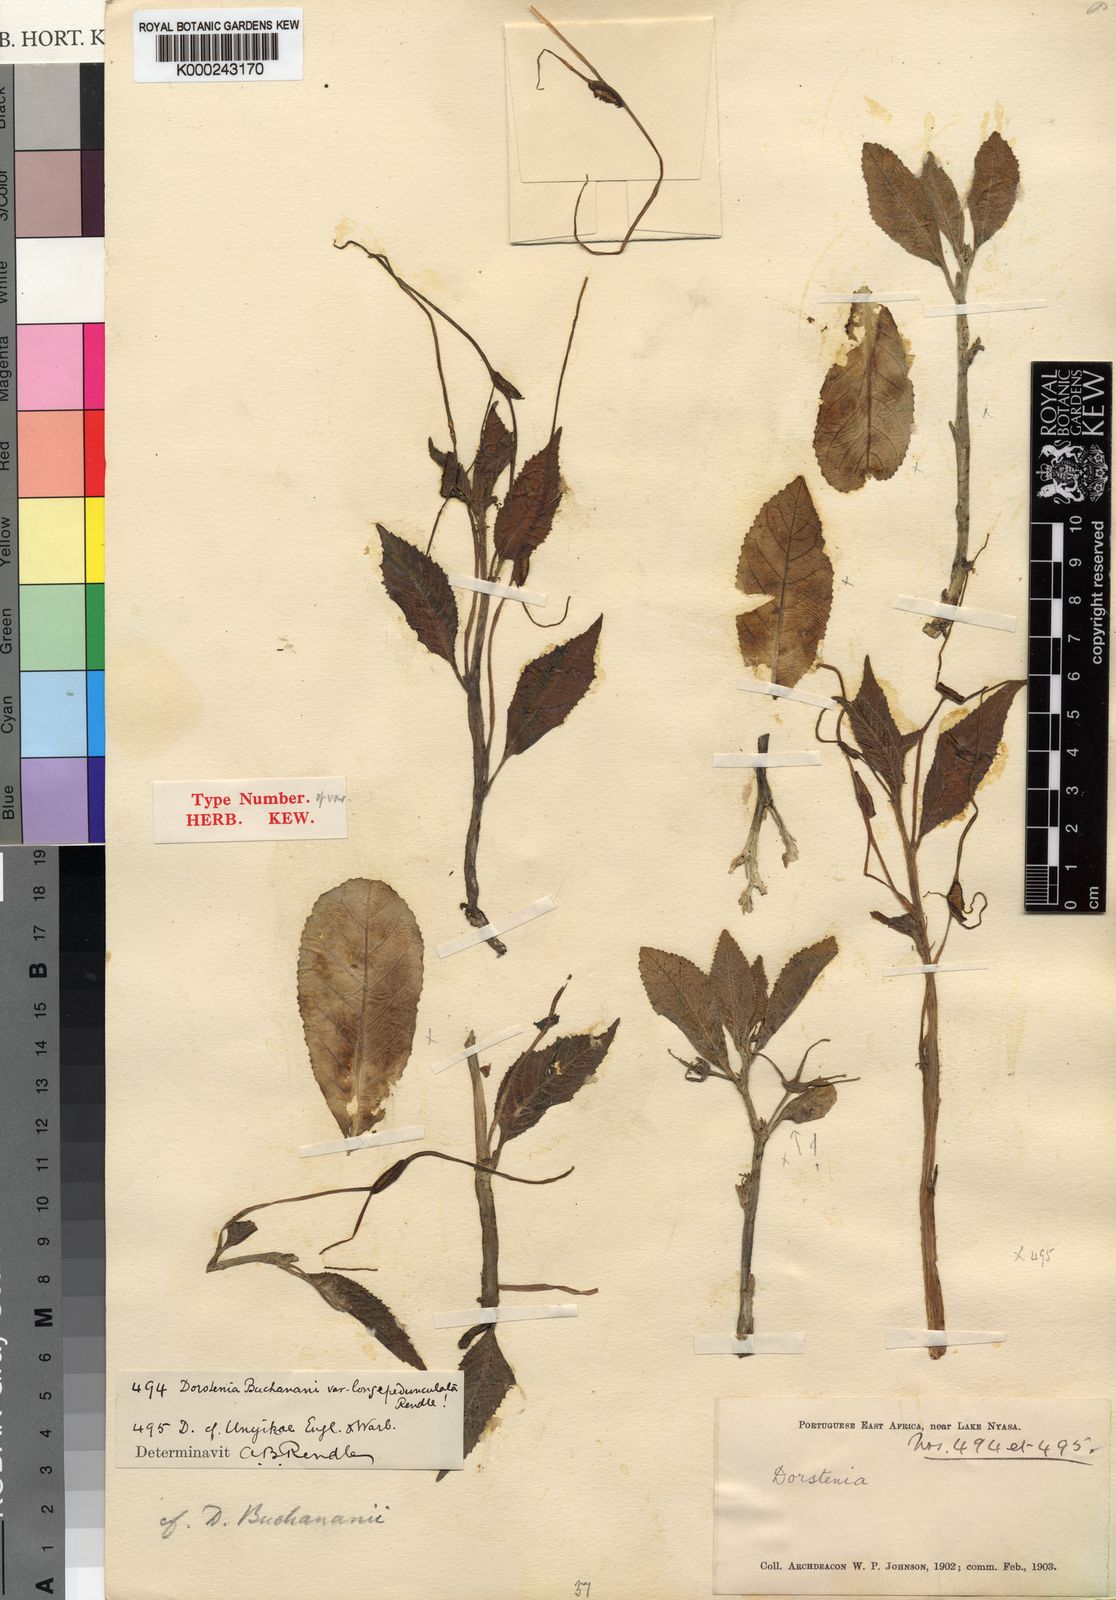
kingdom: Plantae
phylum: Tracheophyta
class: Magnoliopsida
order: Rosales
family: Moraceae
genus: Dorstenia
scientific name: Dorstenia
